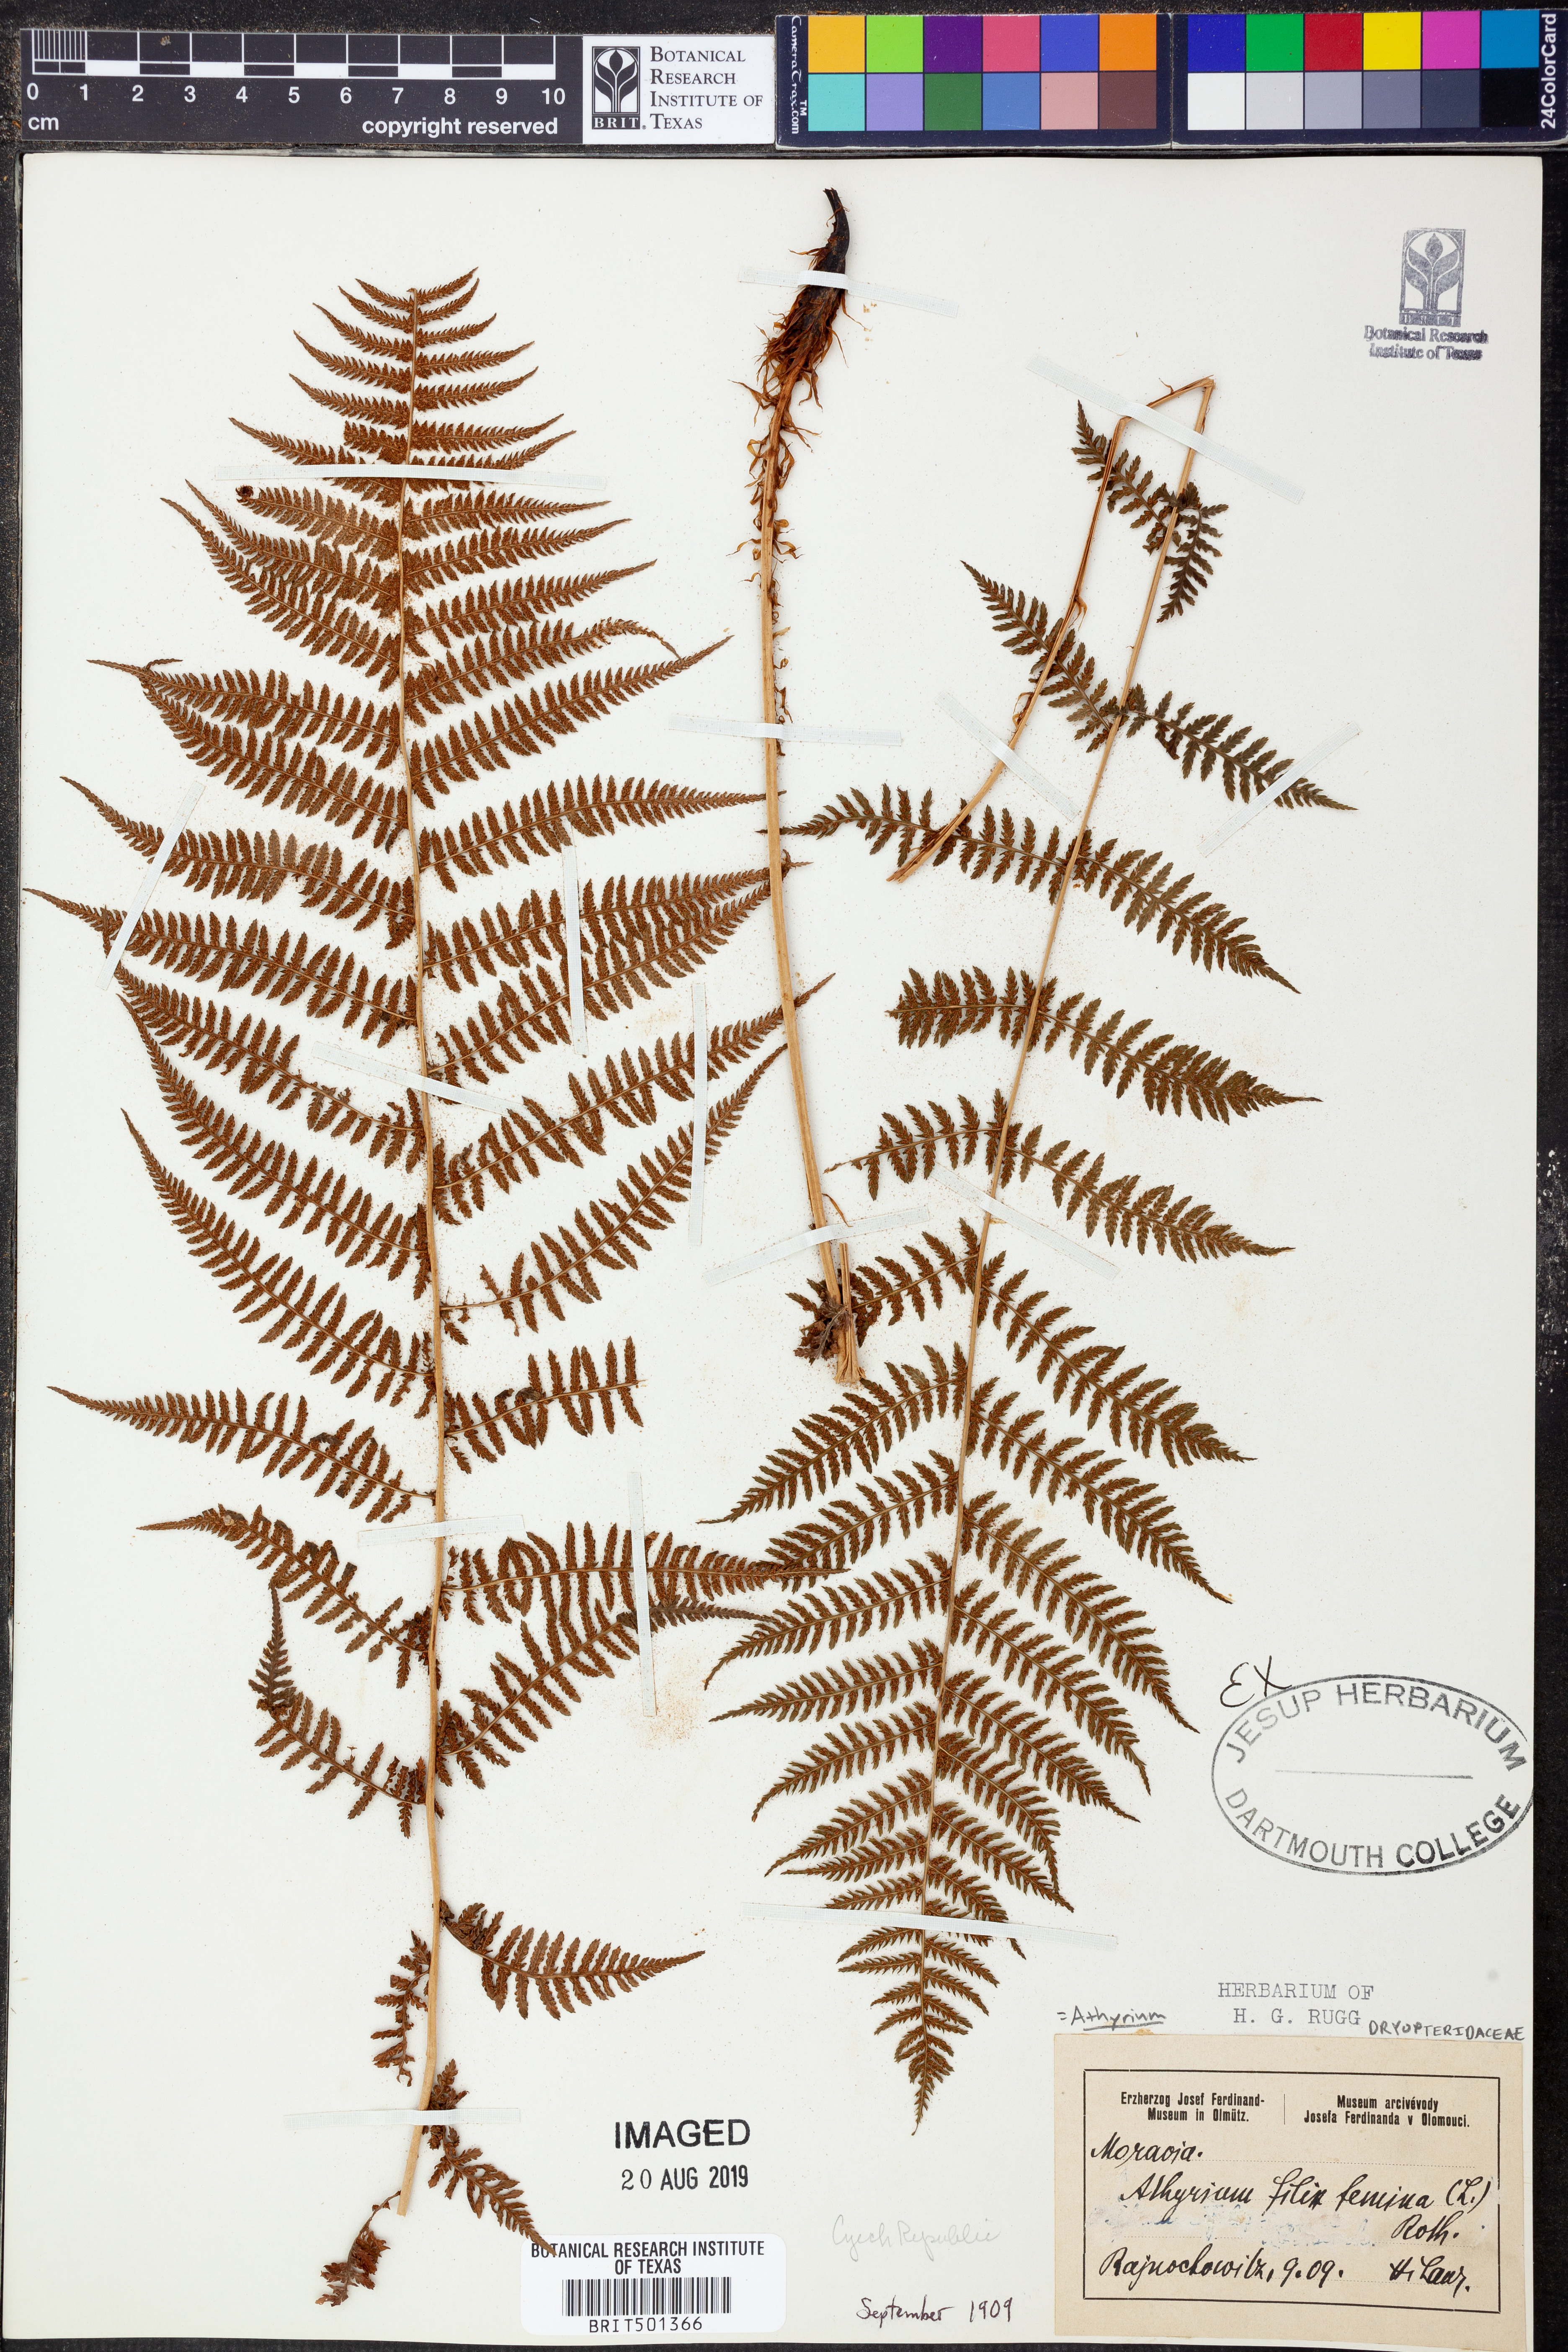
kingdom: Plantae
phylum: Tracheophyta
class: Polypodiopsida
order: Polypodiales
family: Athyriaceae
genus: Athyrium
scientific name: Athyrium filix-femina
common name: Lady fern
